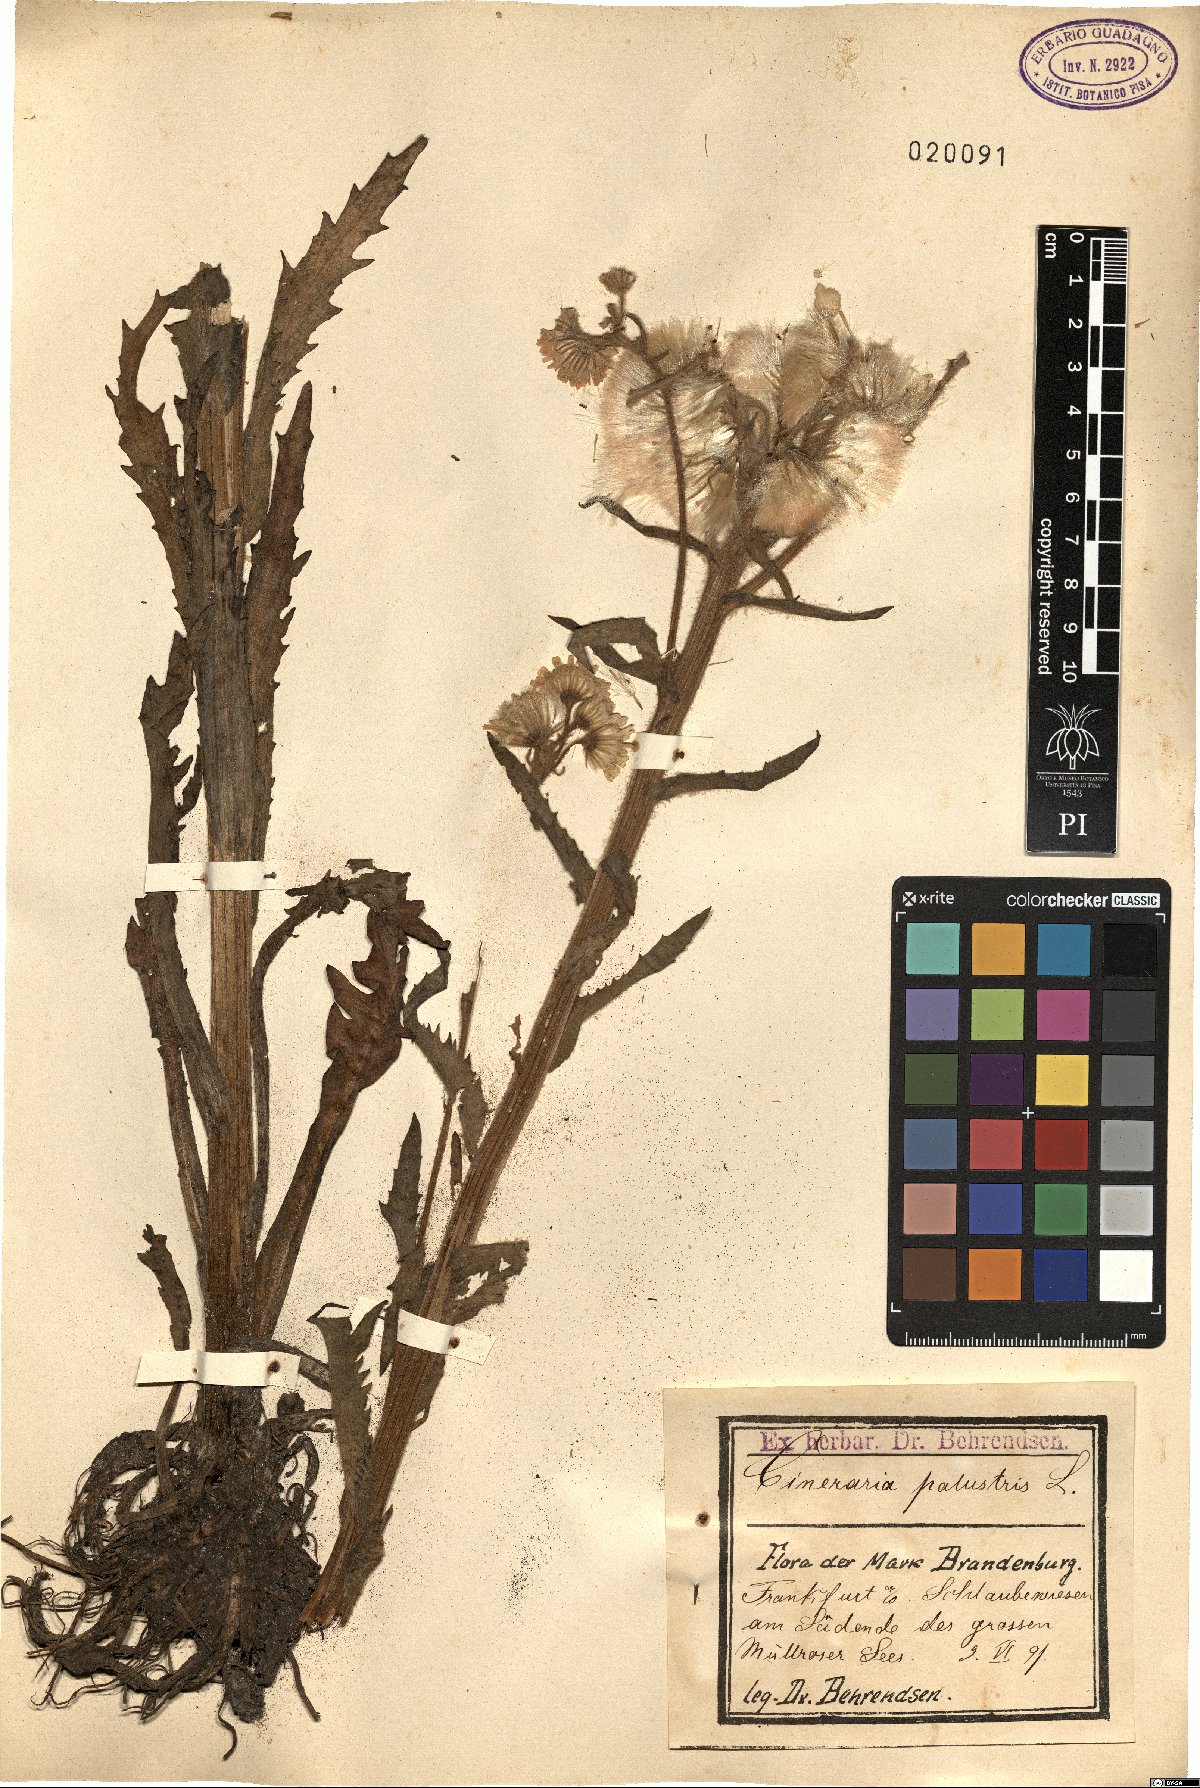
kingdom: Plantae
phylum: Tracheophyta
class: Magnoliopsida
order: Asterales
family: Asteraceae
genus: Tephroseris
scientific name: Tephroseris palustris
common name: Marsh fleawort
